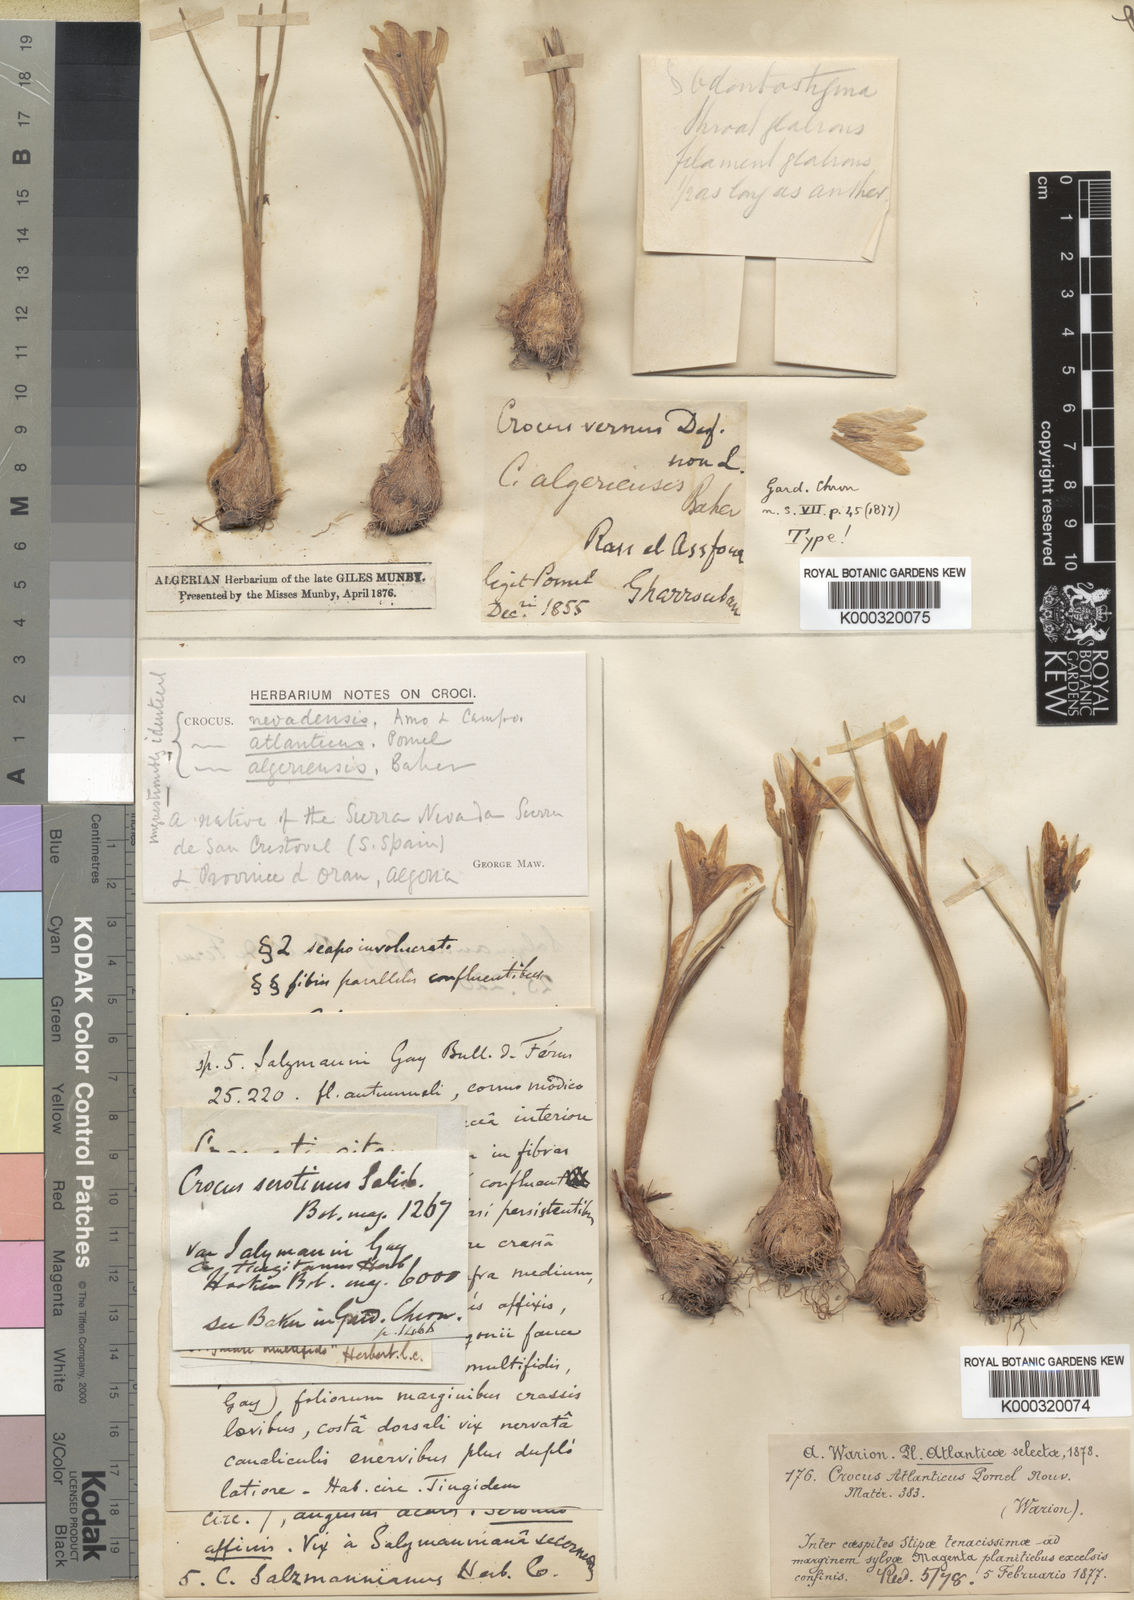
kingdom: Plantae
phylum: Tracheophyta
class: Liliopsida
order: Asparagales
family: Iridaceae
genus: Crocus
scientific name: Crocus nevadensis
